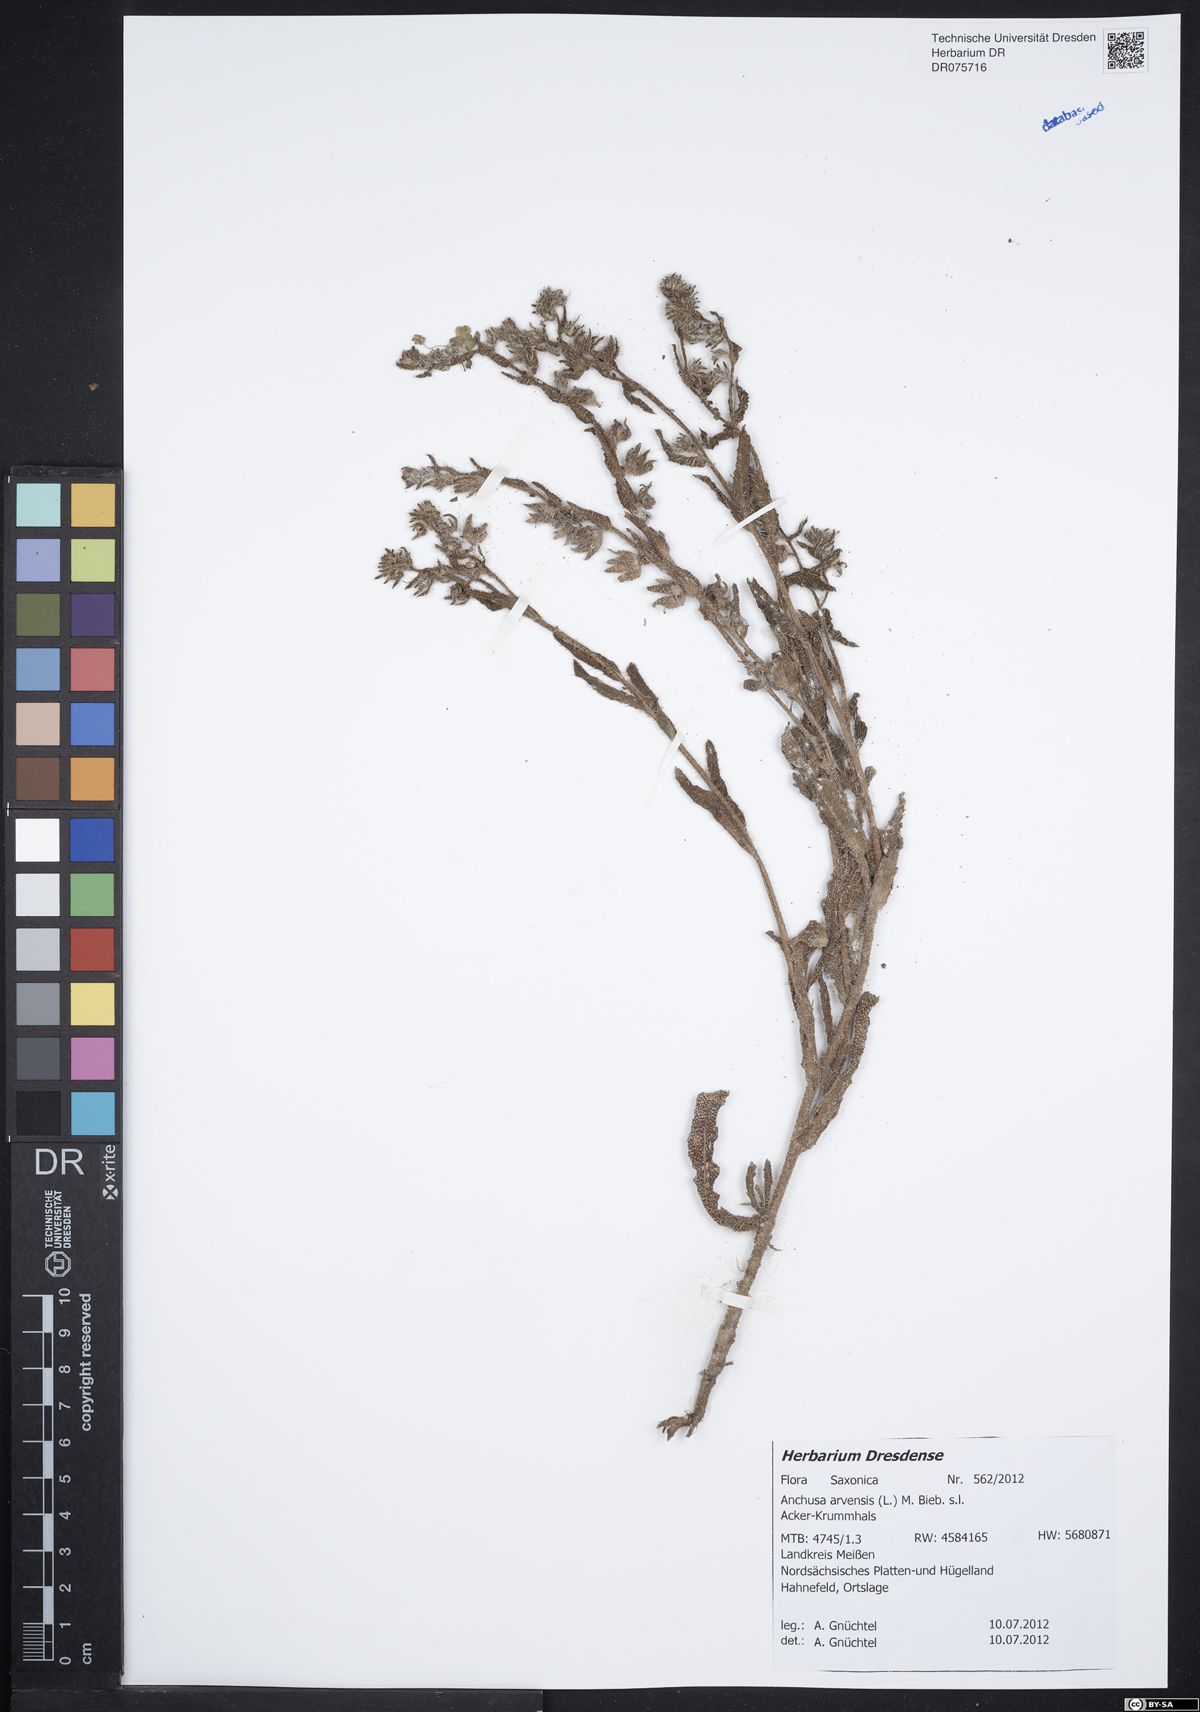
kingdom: Plantae
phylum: Tracheophyta
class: Magnoliopsida
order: Boraginales
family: Boraginaceae
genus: Lycopsis
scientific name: Lycopsis arvensis
